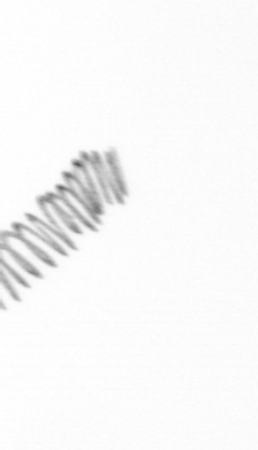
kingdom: Chromista
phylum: Ochrophyta
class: Bacillariophyceae
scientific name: Bacillariophyceae
